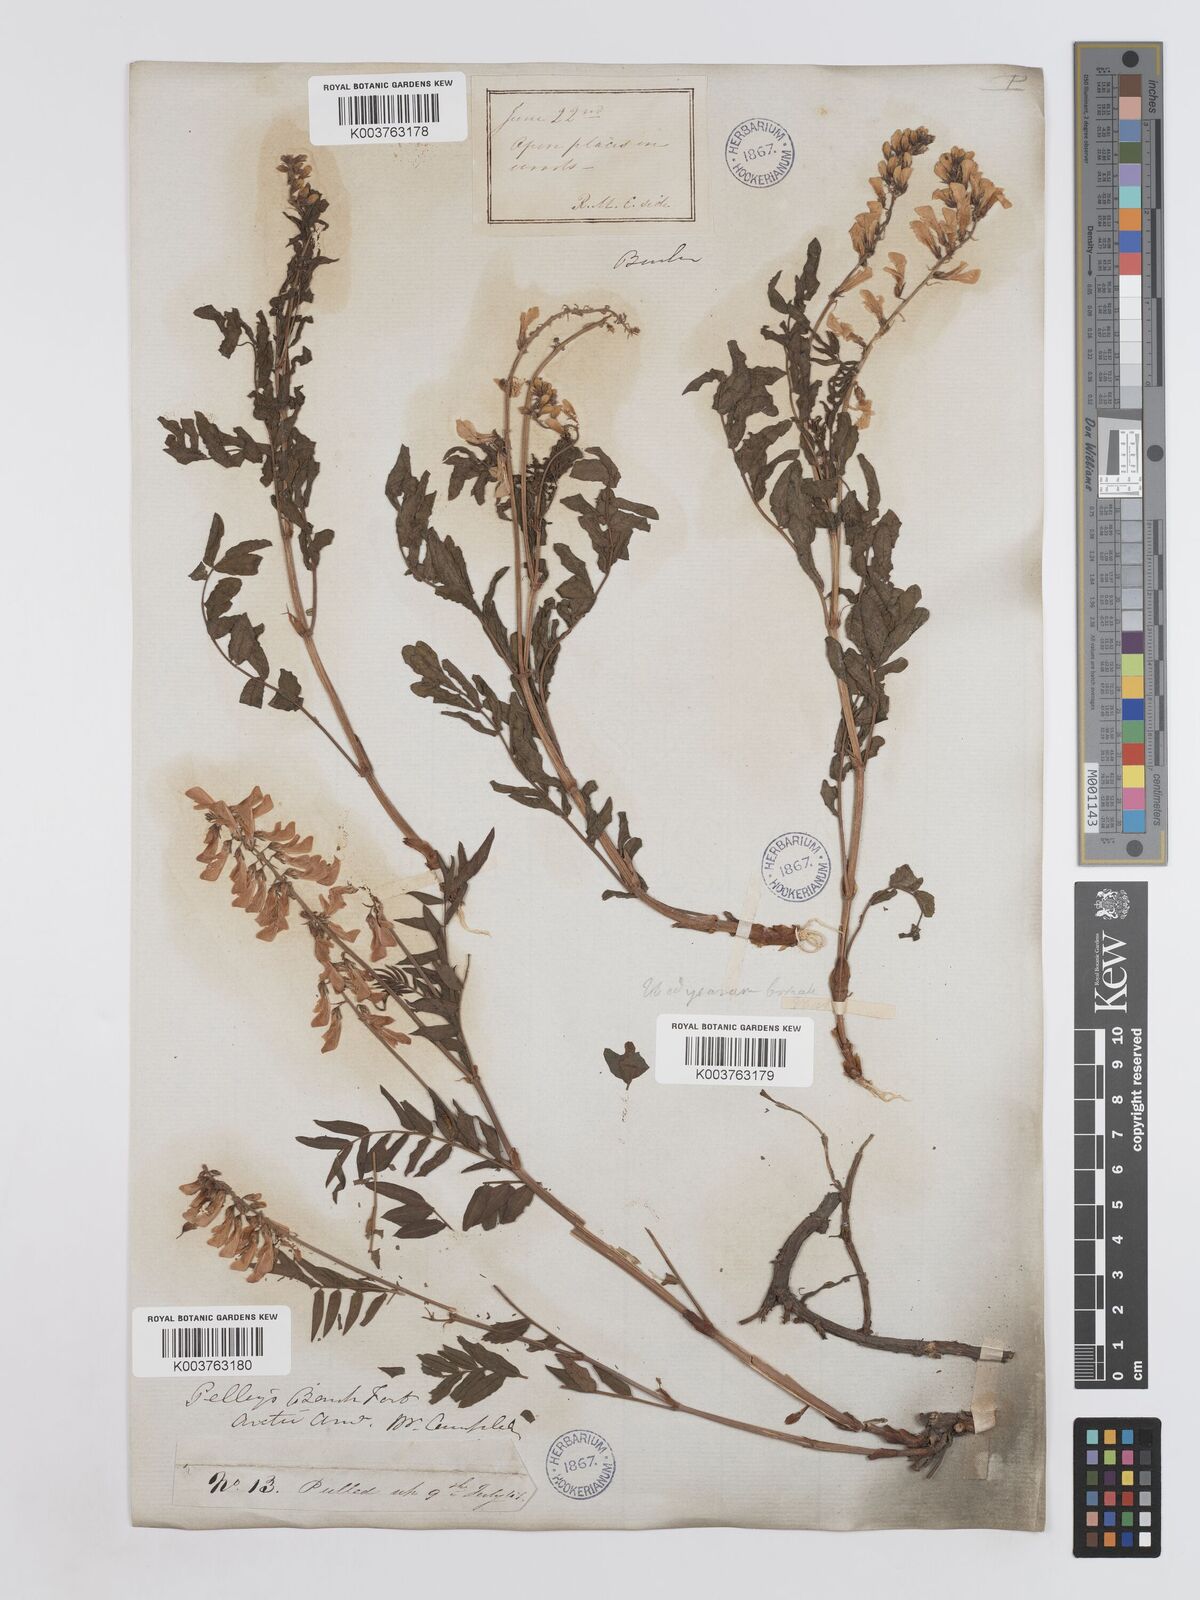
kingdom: Plantae
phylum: Tracheophyta
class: Magnoliopsida
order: Fabales
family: Fabaceae
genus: Hedysarum
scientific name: Hedysarum boreale
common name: Northern sweet-vetch
